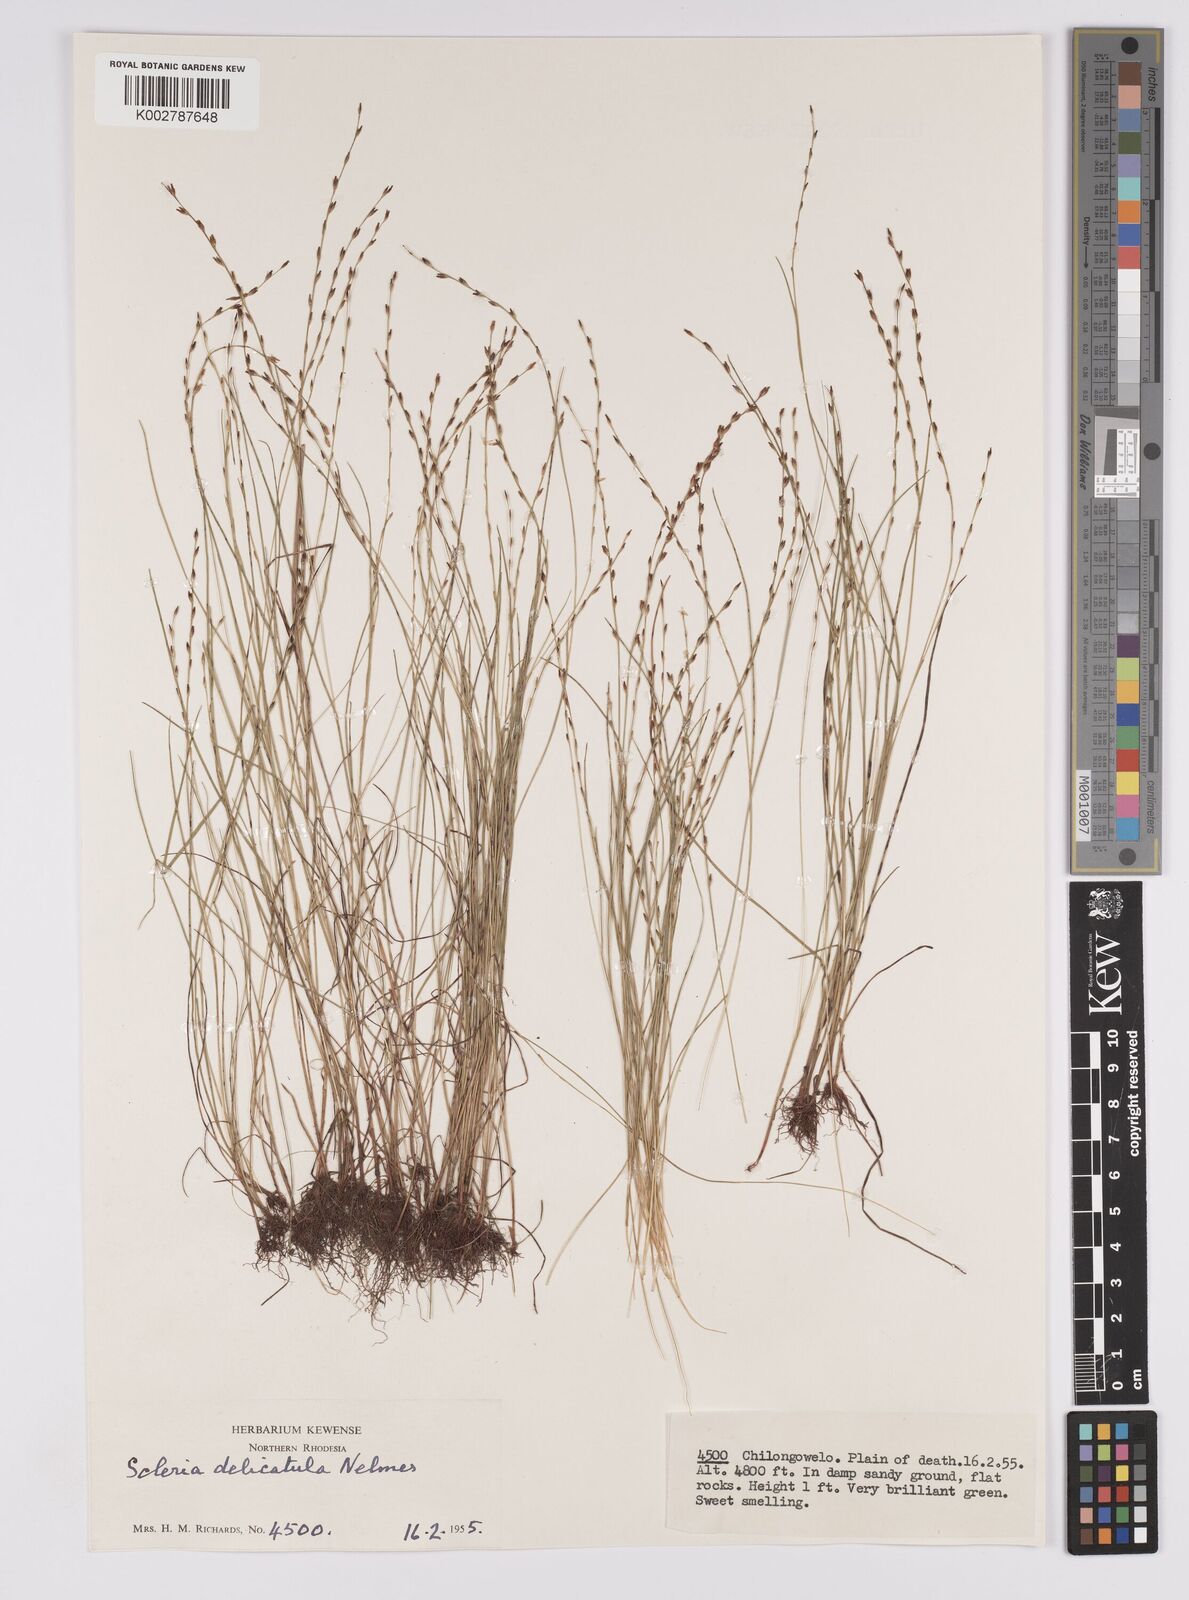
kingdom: Plantae
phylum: Tracheophyta
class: Liliopsida
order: Poales
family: Cyperaceae
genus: Scleria
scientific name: Scleria delicatula
